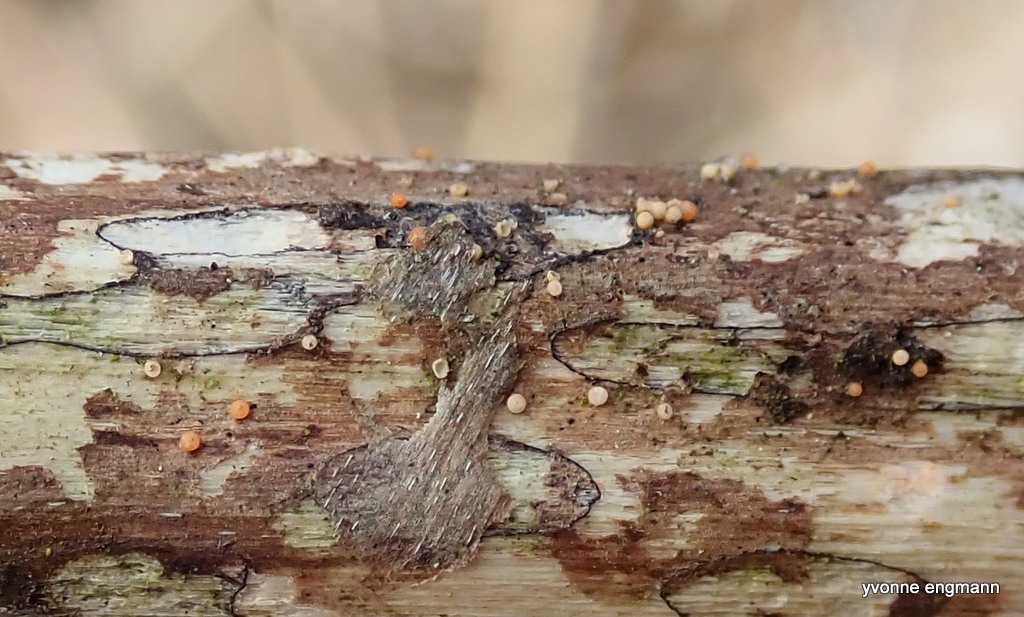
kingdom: Fungi
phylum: Ascomycota
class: Sordariomycetes
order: Hypocreales
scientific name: Hypocreales
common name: kødkerneordenen
